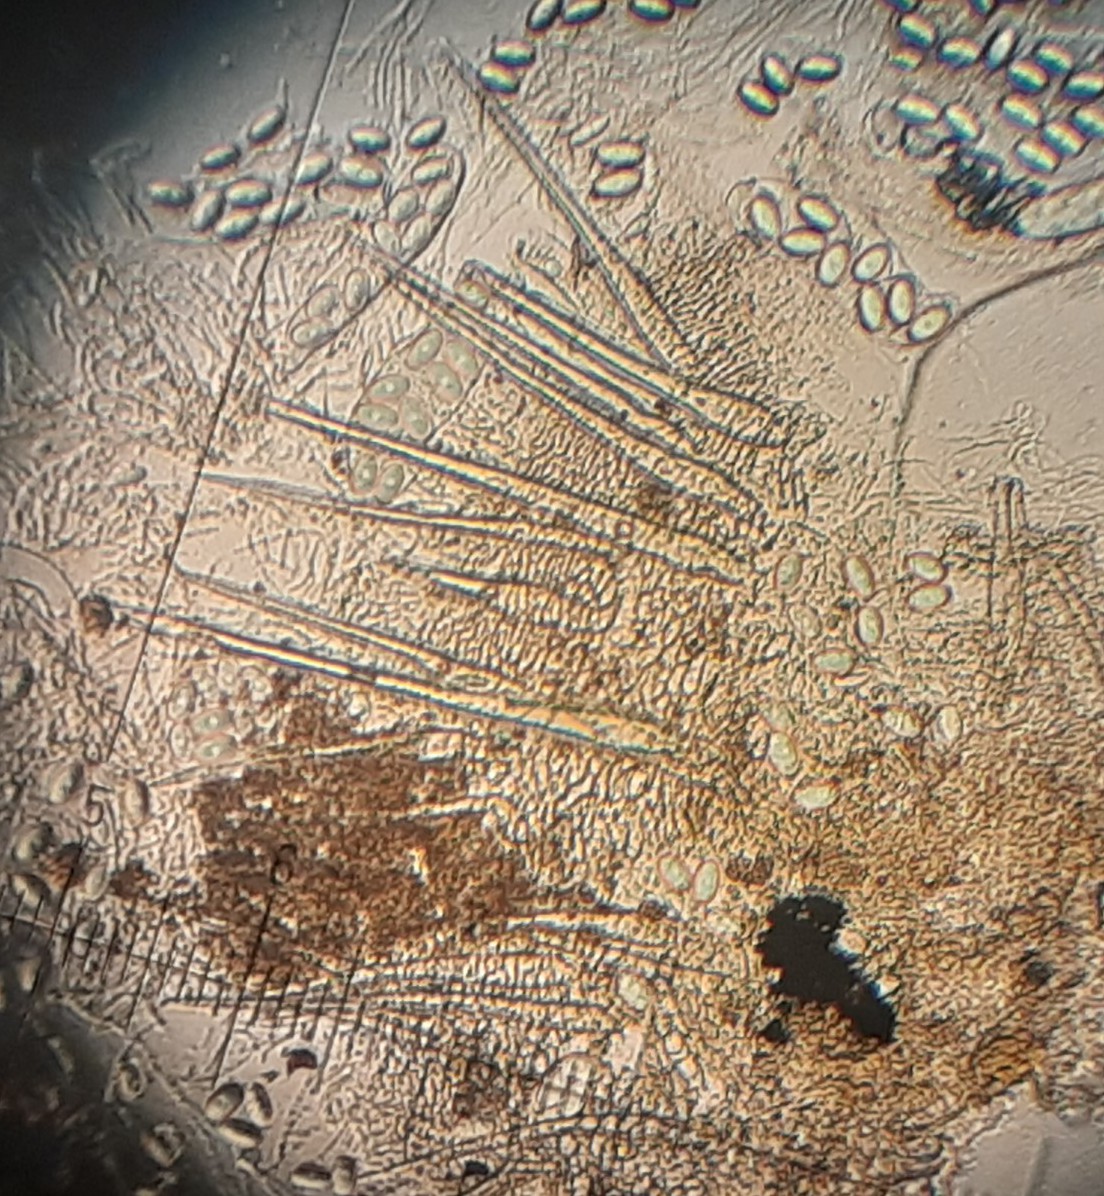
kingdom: Fungi
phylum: Ascomycota
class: Pezizomycetes
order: Pezizales
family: Ascodesmidaceae
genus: Lasiobolus
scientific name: Lasiobolus cuniculi
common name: toradet øjebæger
